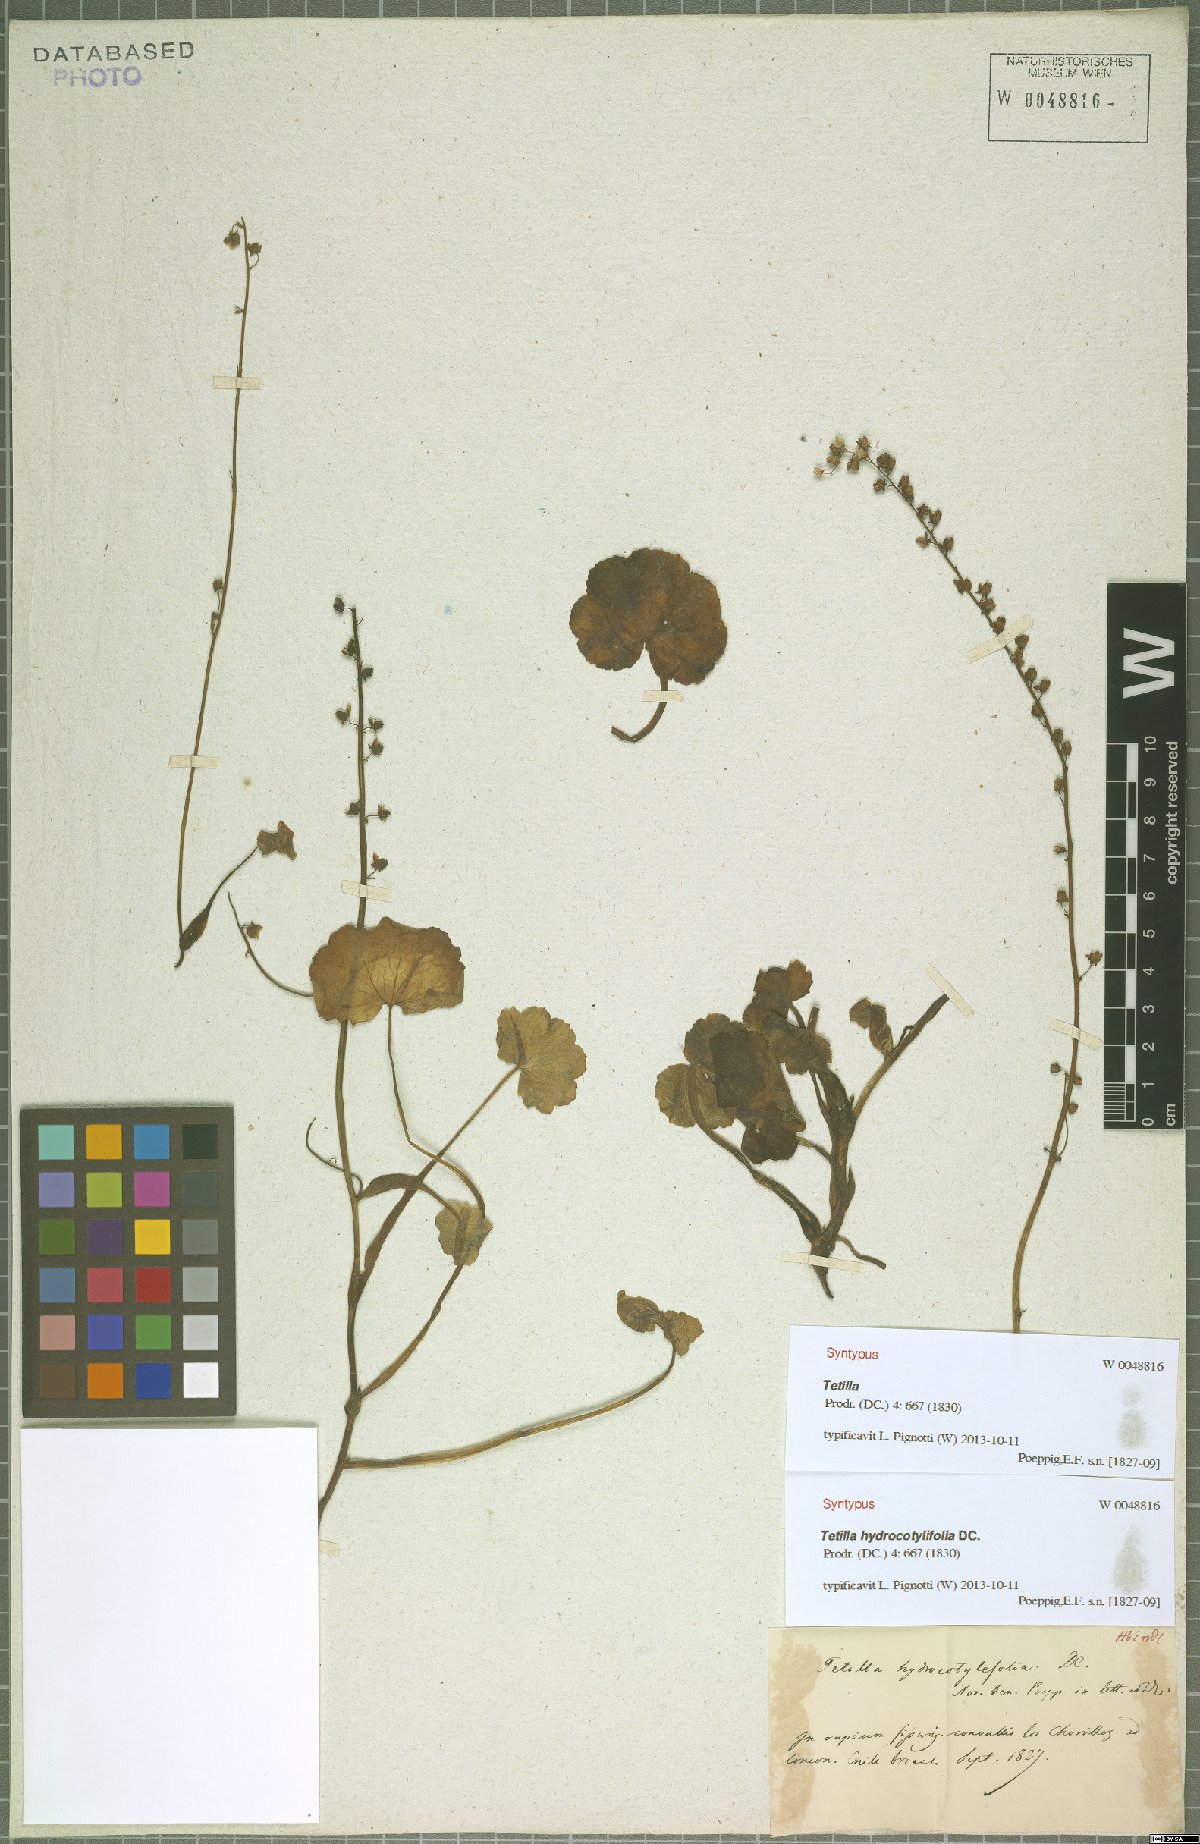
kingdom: Plantae
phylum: Tracheophyta
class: Magnoliopsida
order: Geraniales
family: Francoaceae
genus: Tetilla
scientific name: Tetilla hydrocotylifolia
